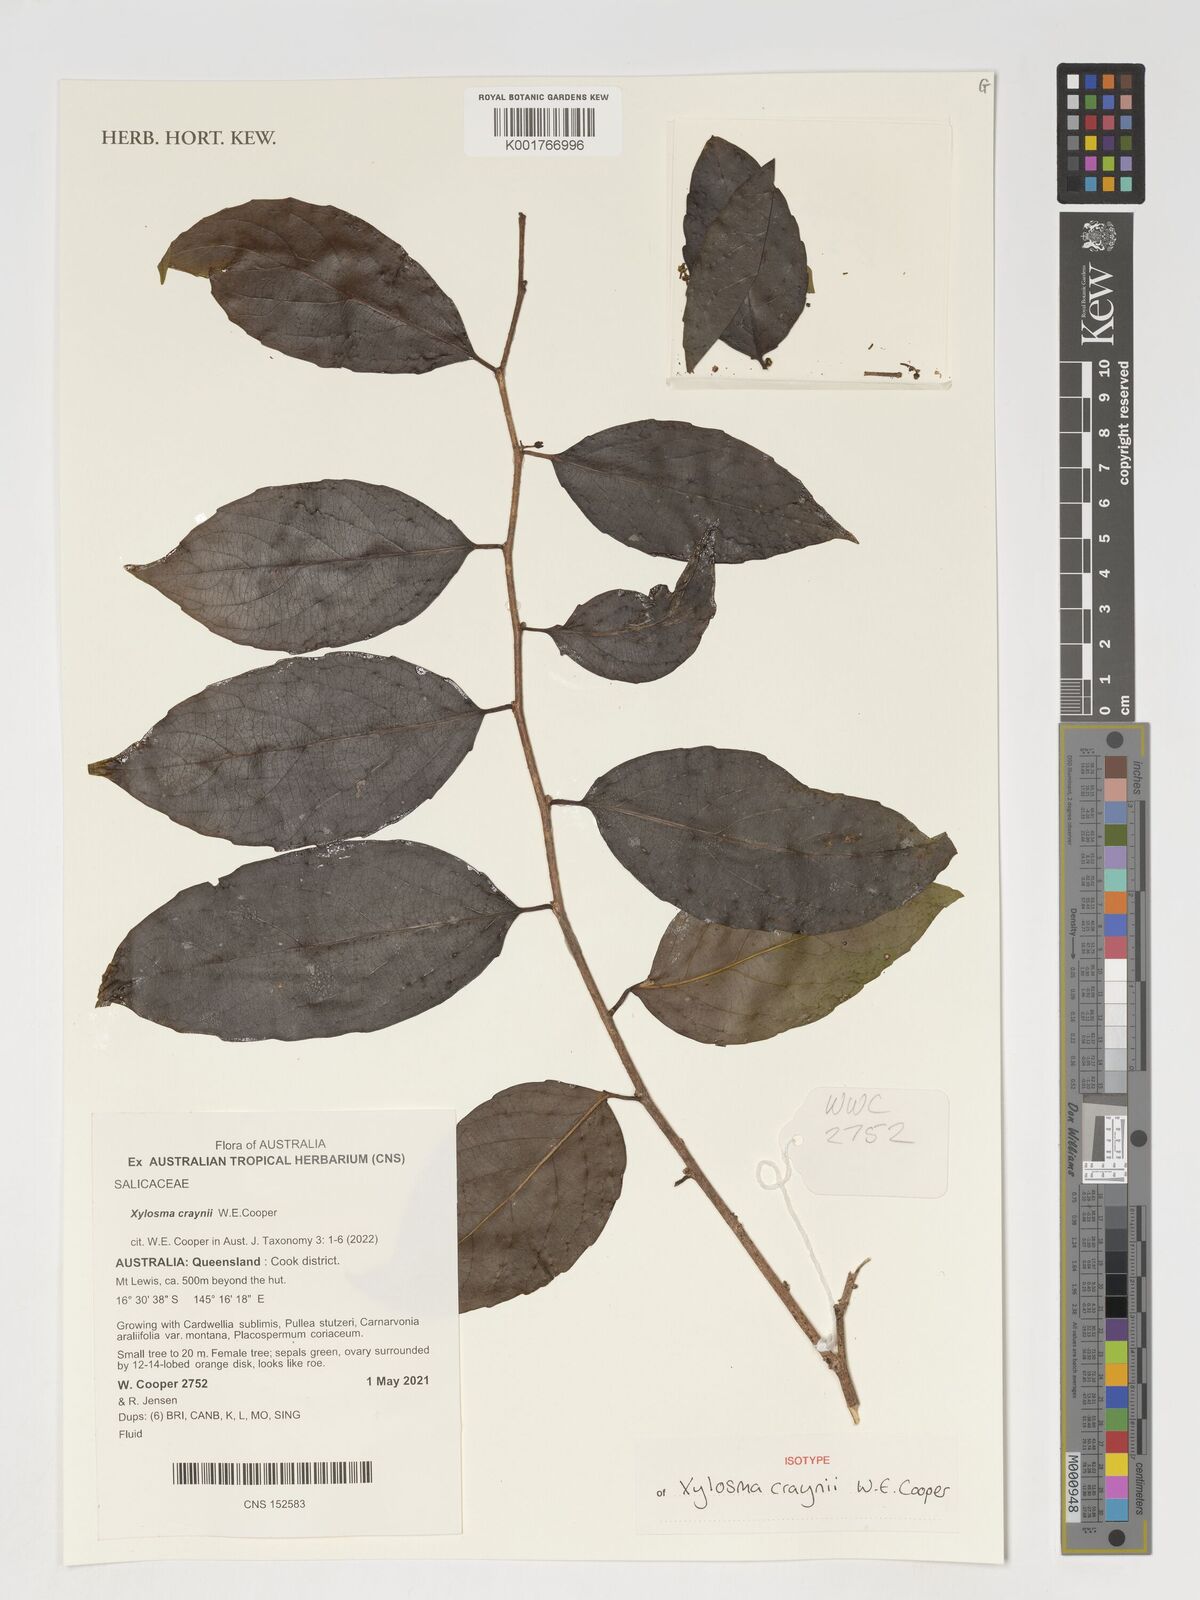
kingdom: Plantae
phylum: Tracheophyta
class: Magnoliopsida
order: Malpighiales
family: Salicaceae
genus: Xylosma
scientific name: Xylosma
